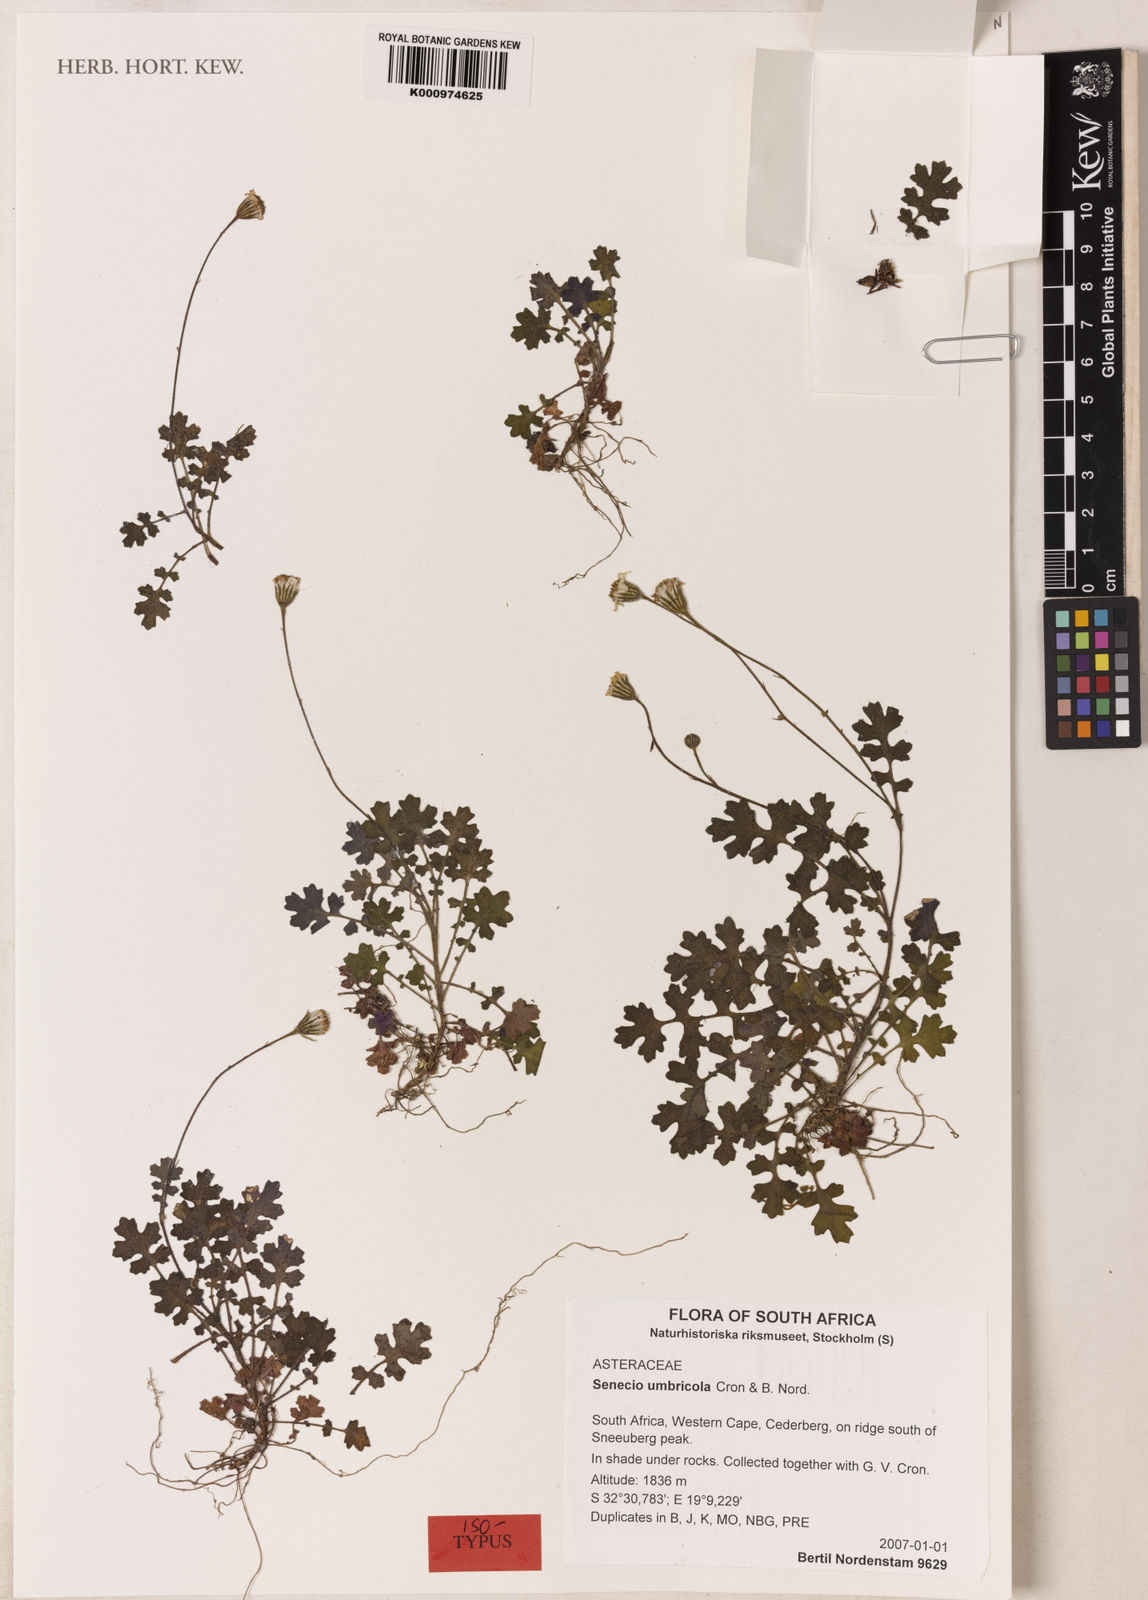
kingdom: Plantae
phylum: Tracheophyta
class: Magnoliopsida
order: Asterales
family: Asteraceae
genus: Senecio
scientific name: Senecio umbricola
